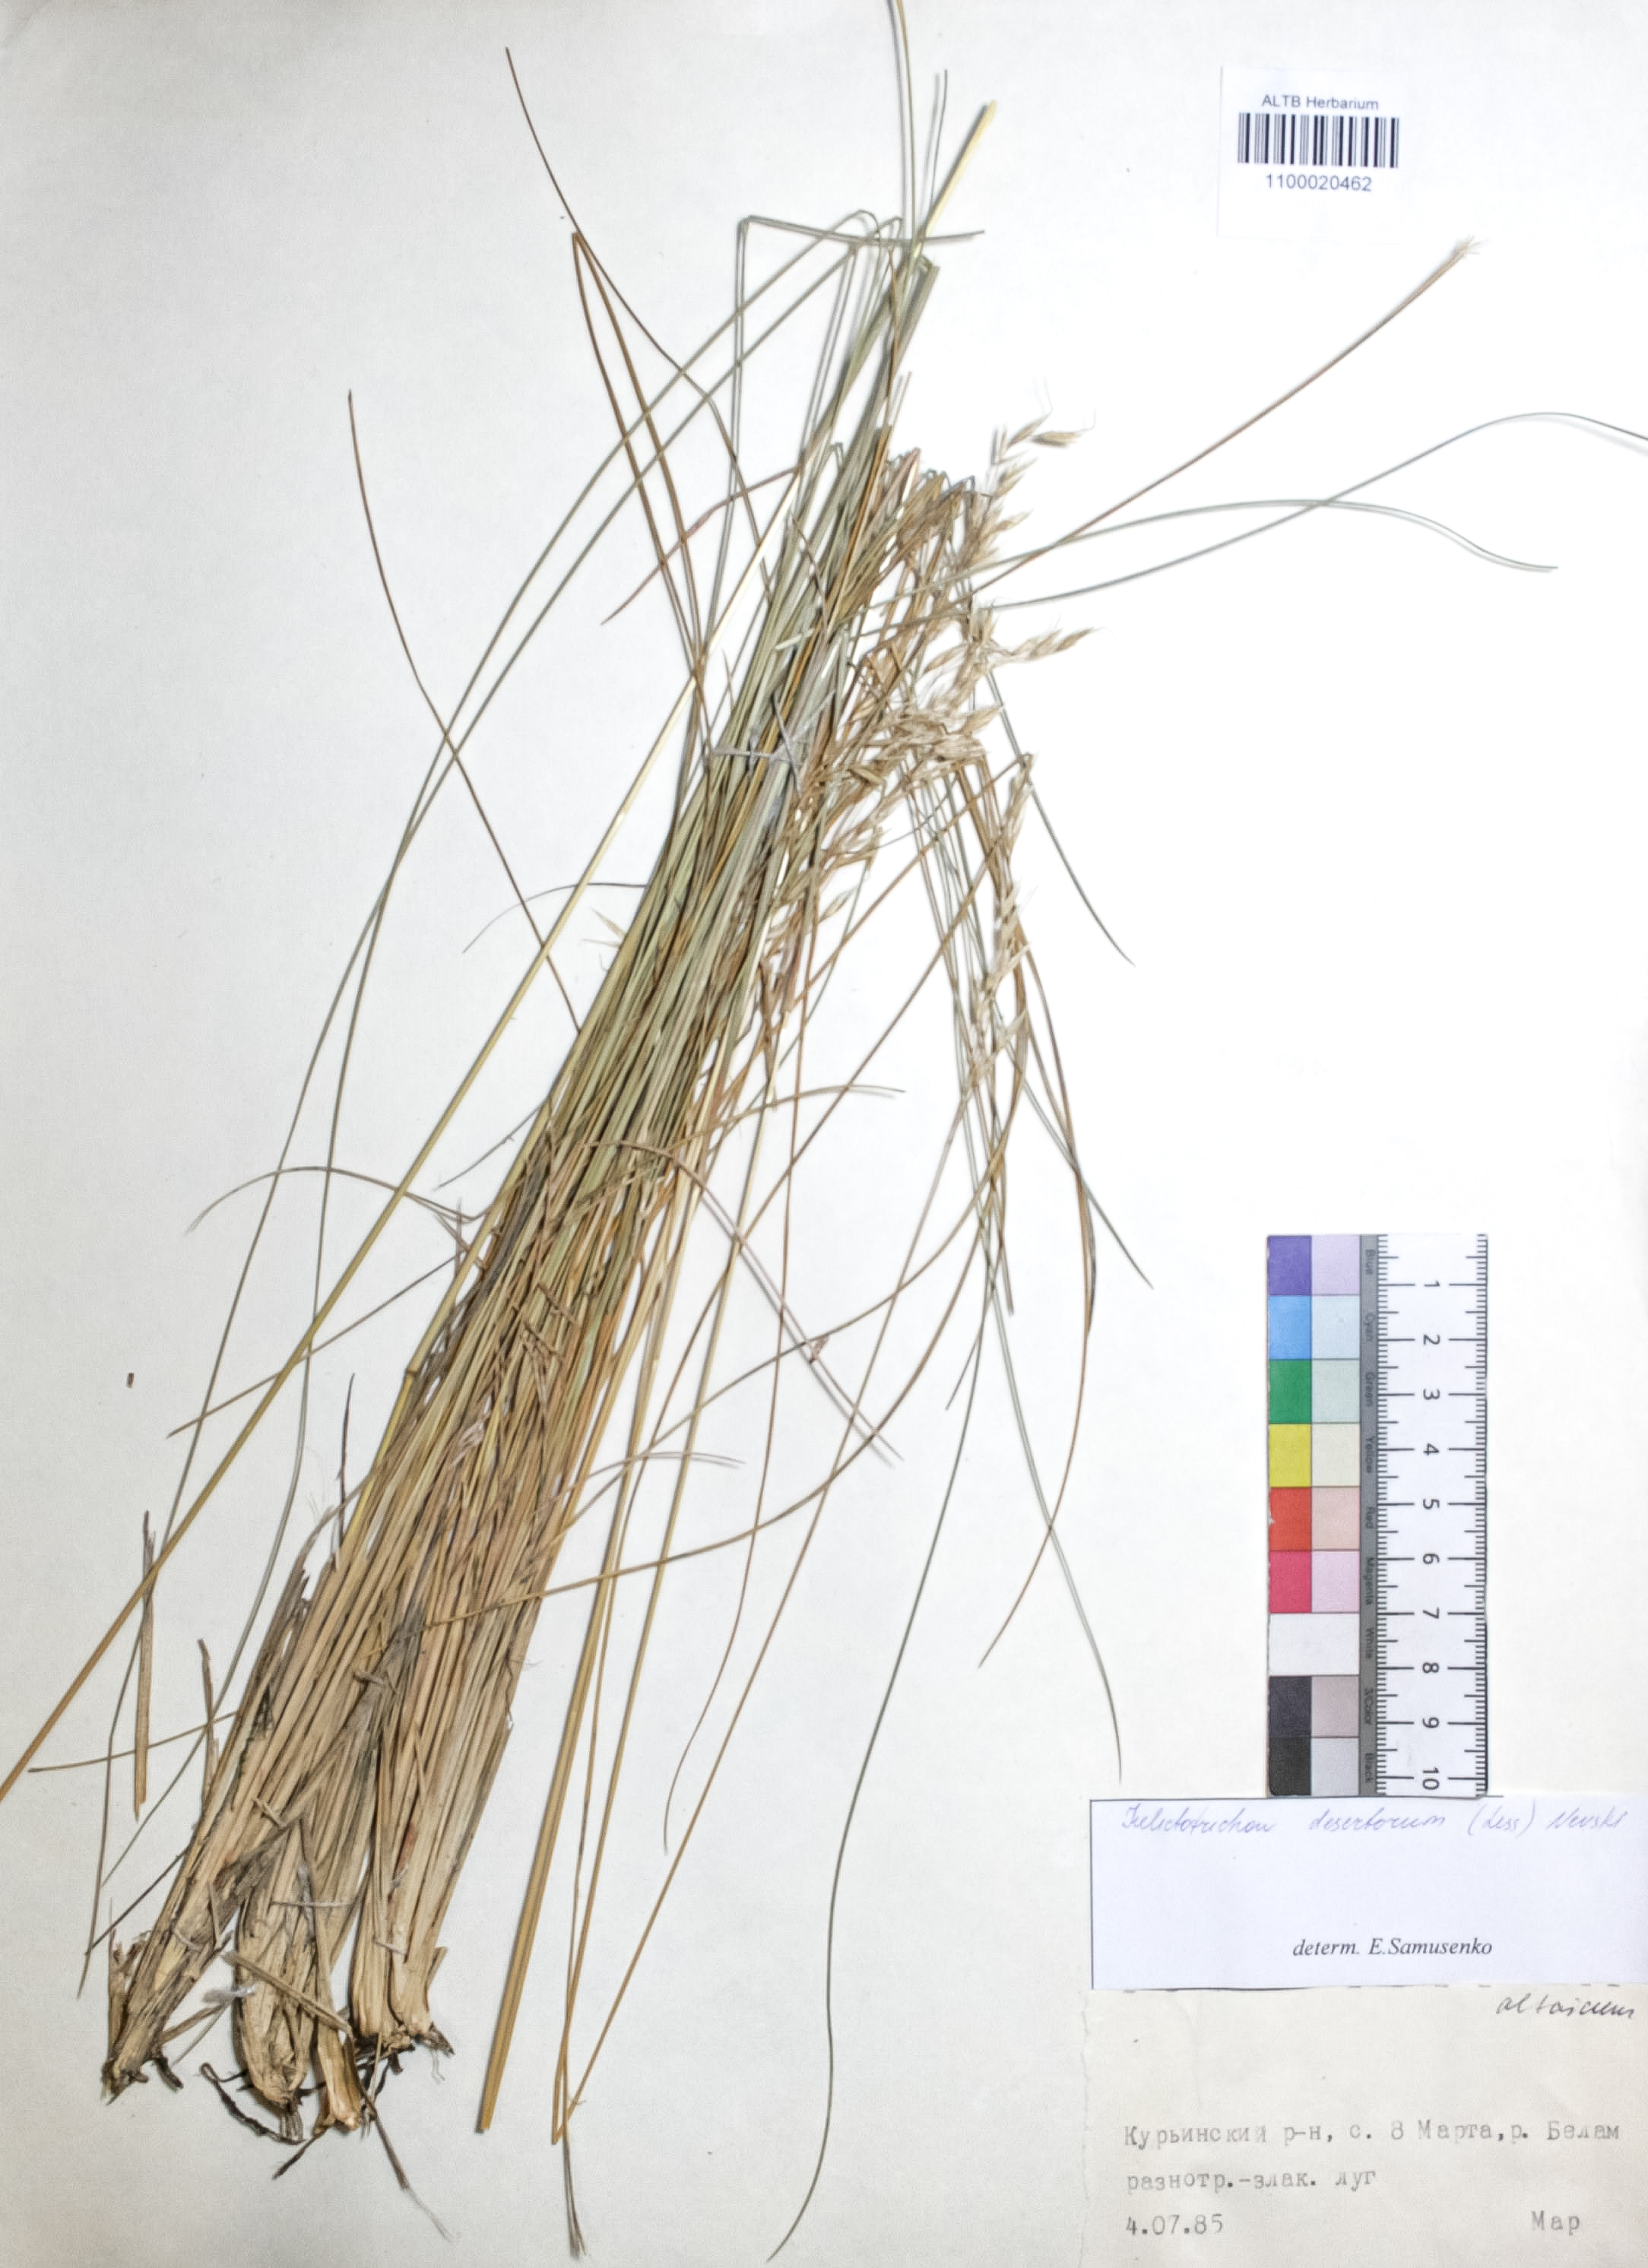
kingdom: Plantae
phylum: Tracheophyta
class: Liliopsida
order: Poales
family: Poaceae
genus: Helictotrichon
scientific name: Helictotrichon desertorum
